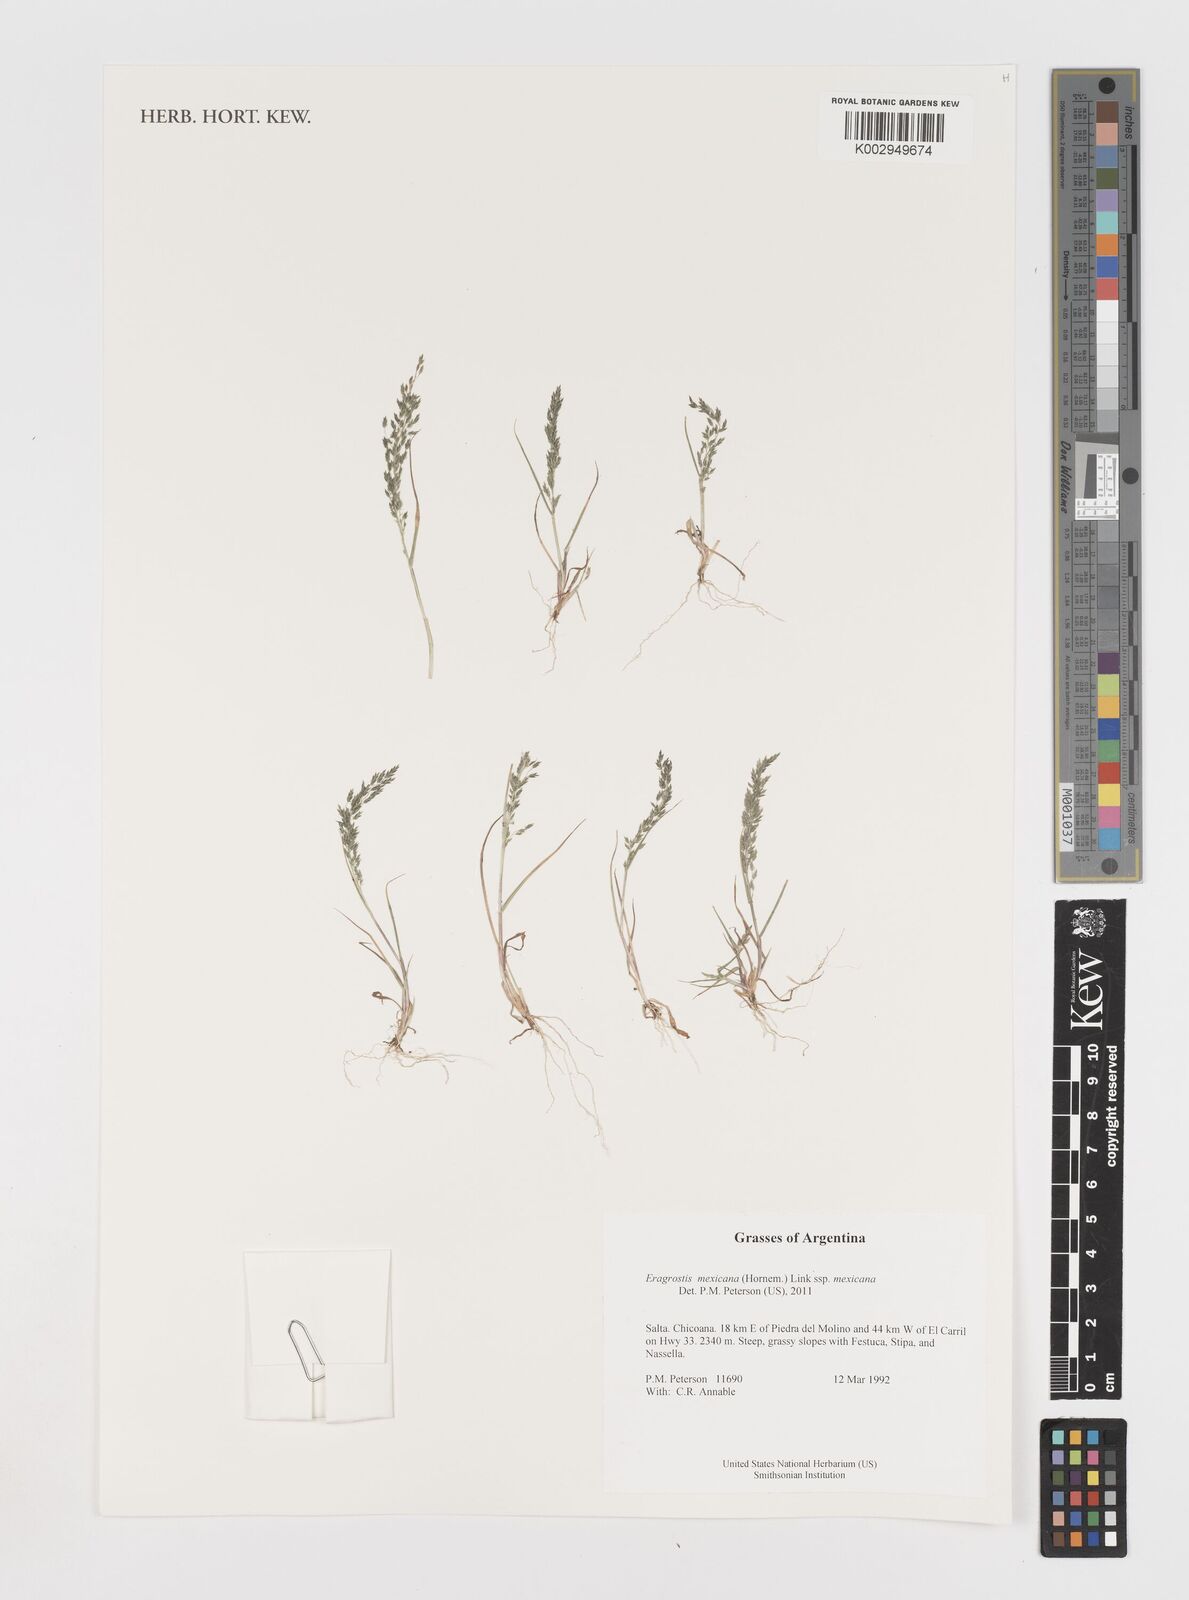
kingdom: Plantae
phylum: Tracheophyta
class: Liliopsida
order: Poales
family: Poaceae
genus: Eragrostis
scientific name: Eragrostis mexicana
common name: Mexican love grass
